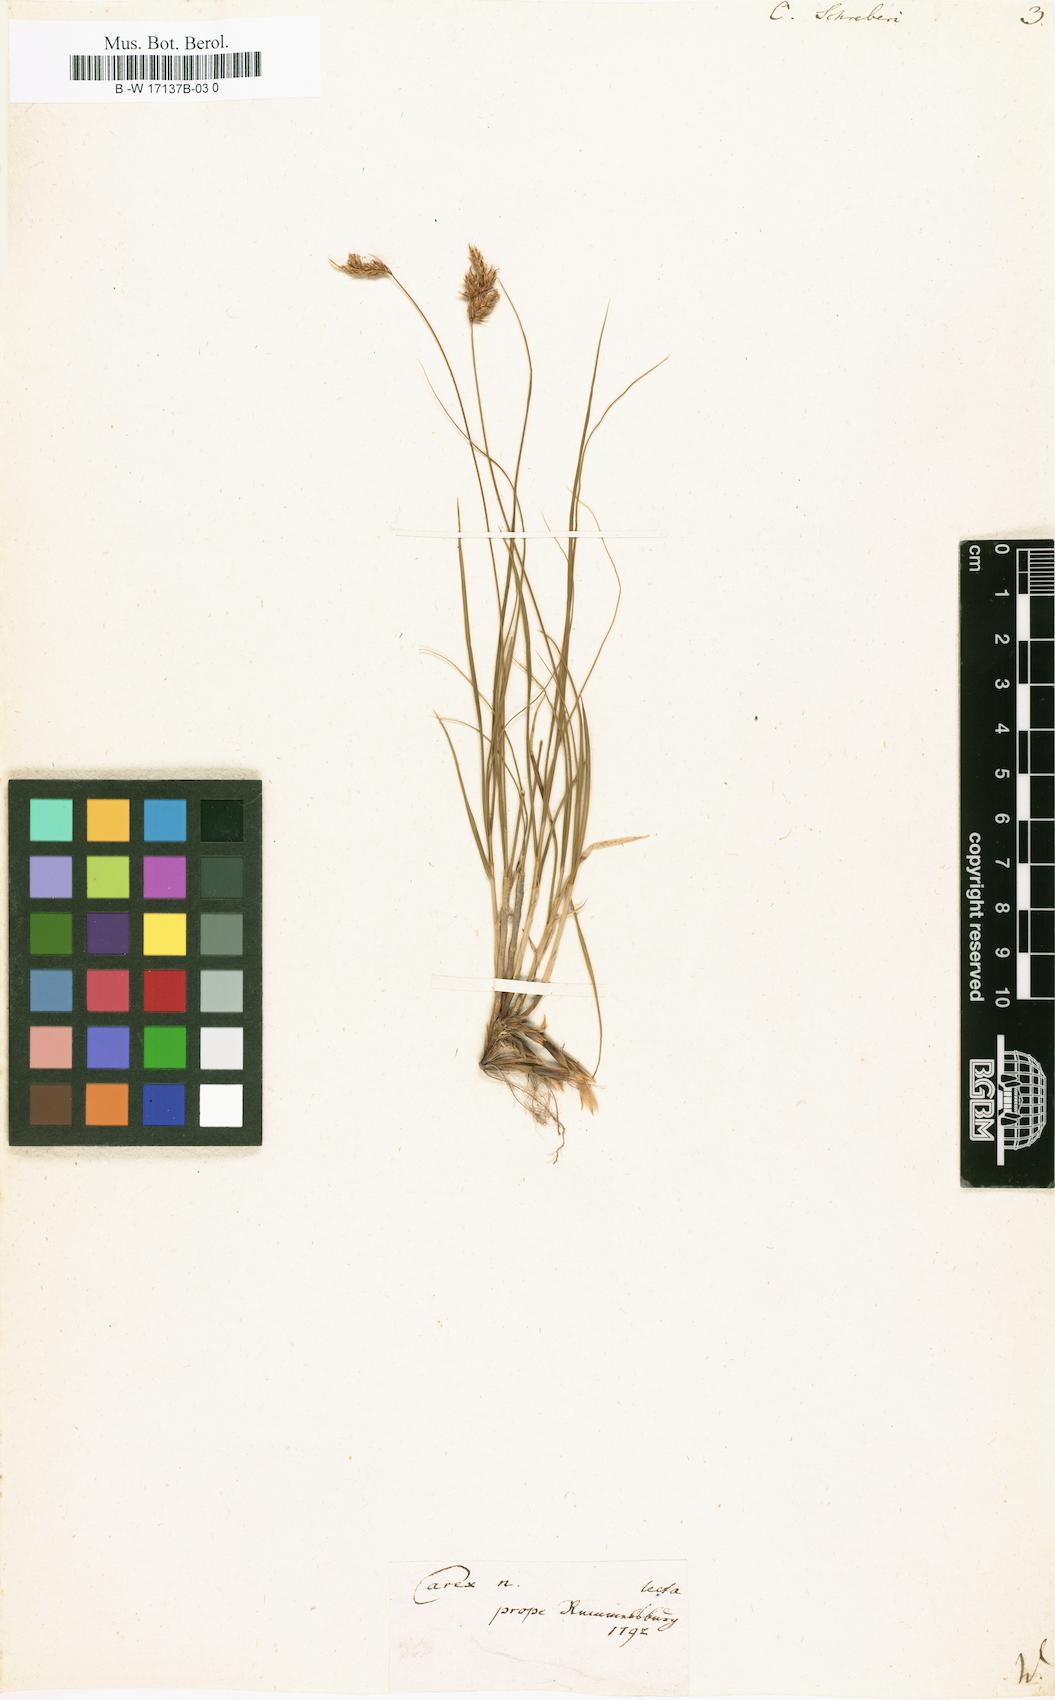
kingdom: Plantae
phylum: Tracheophyta
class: Liliopsida
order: Poales
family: Cyperaceae
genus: Carex
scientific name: Carex
